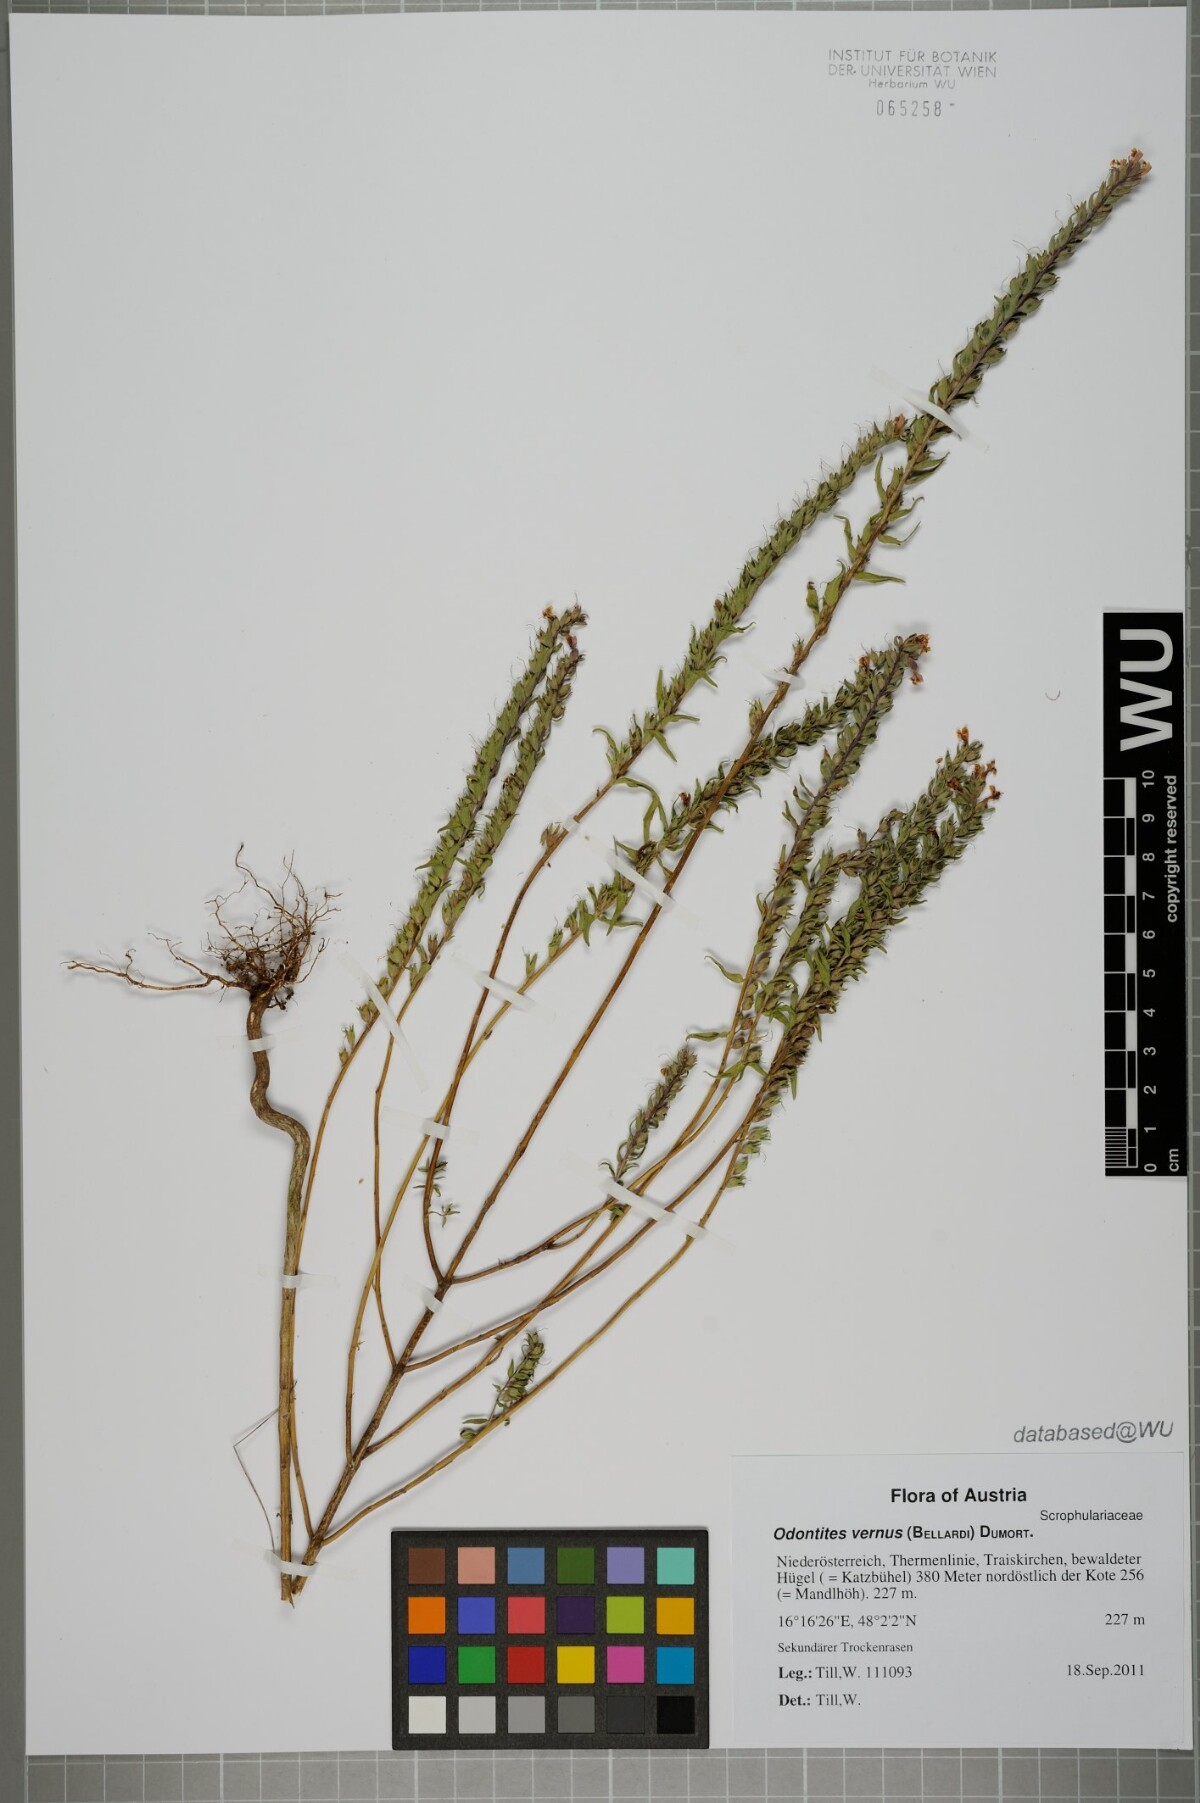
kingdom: Plantae
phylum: Tracheophyta
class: Magnoliopsida
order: Lamiales
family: Orobanchaceae
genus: Odontites
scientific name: Odontites vulgaris
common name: Broomrape
